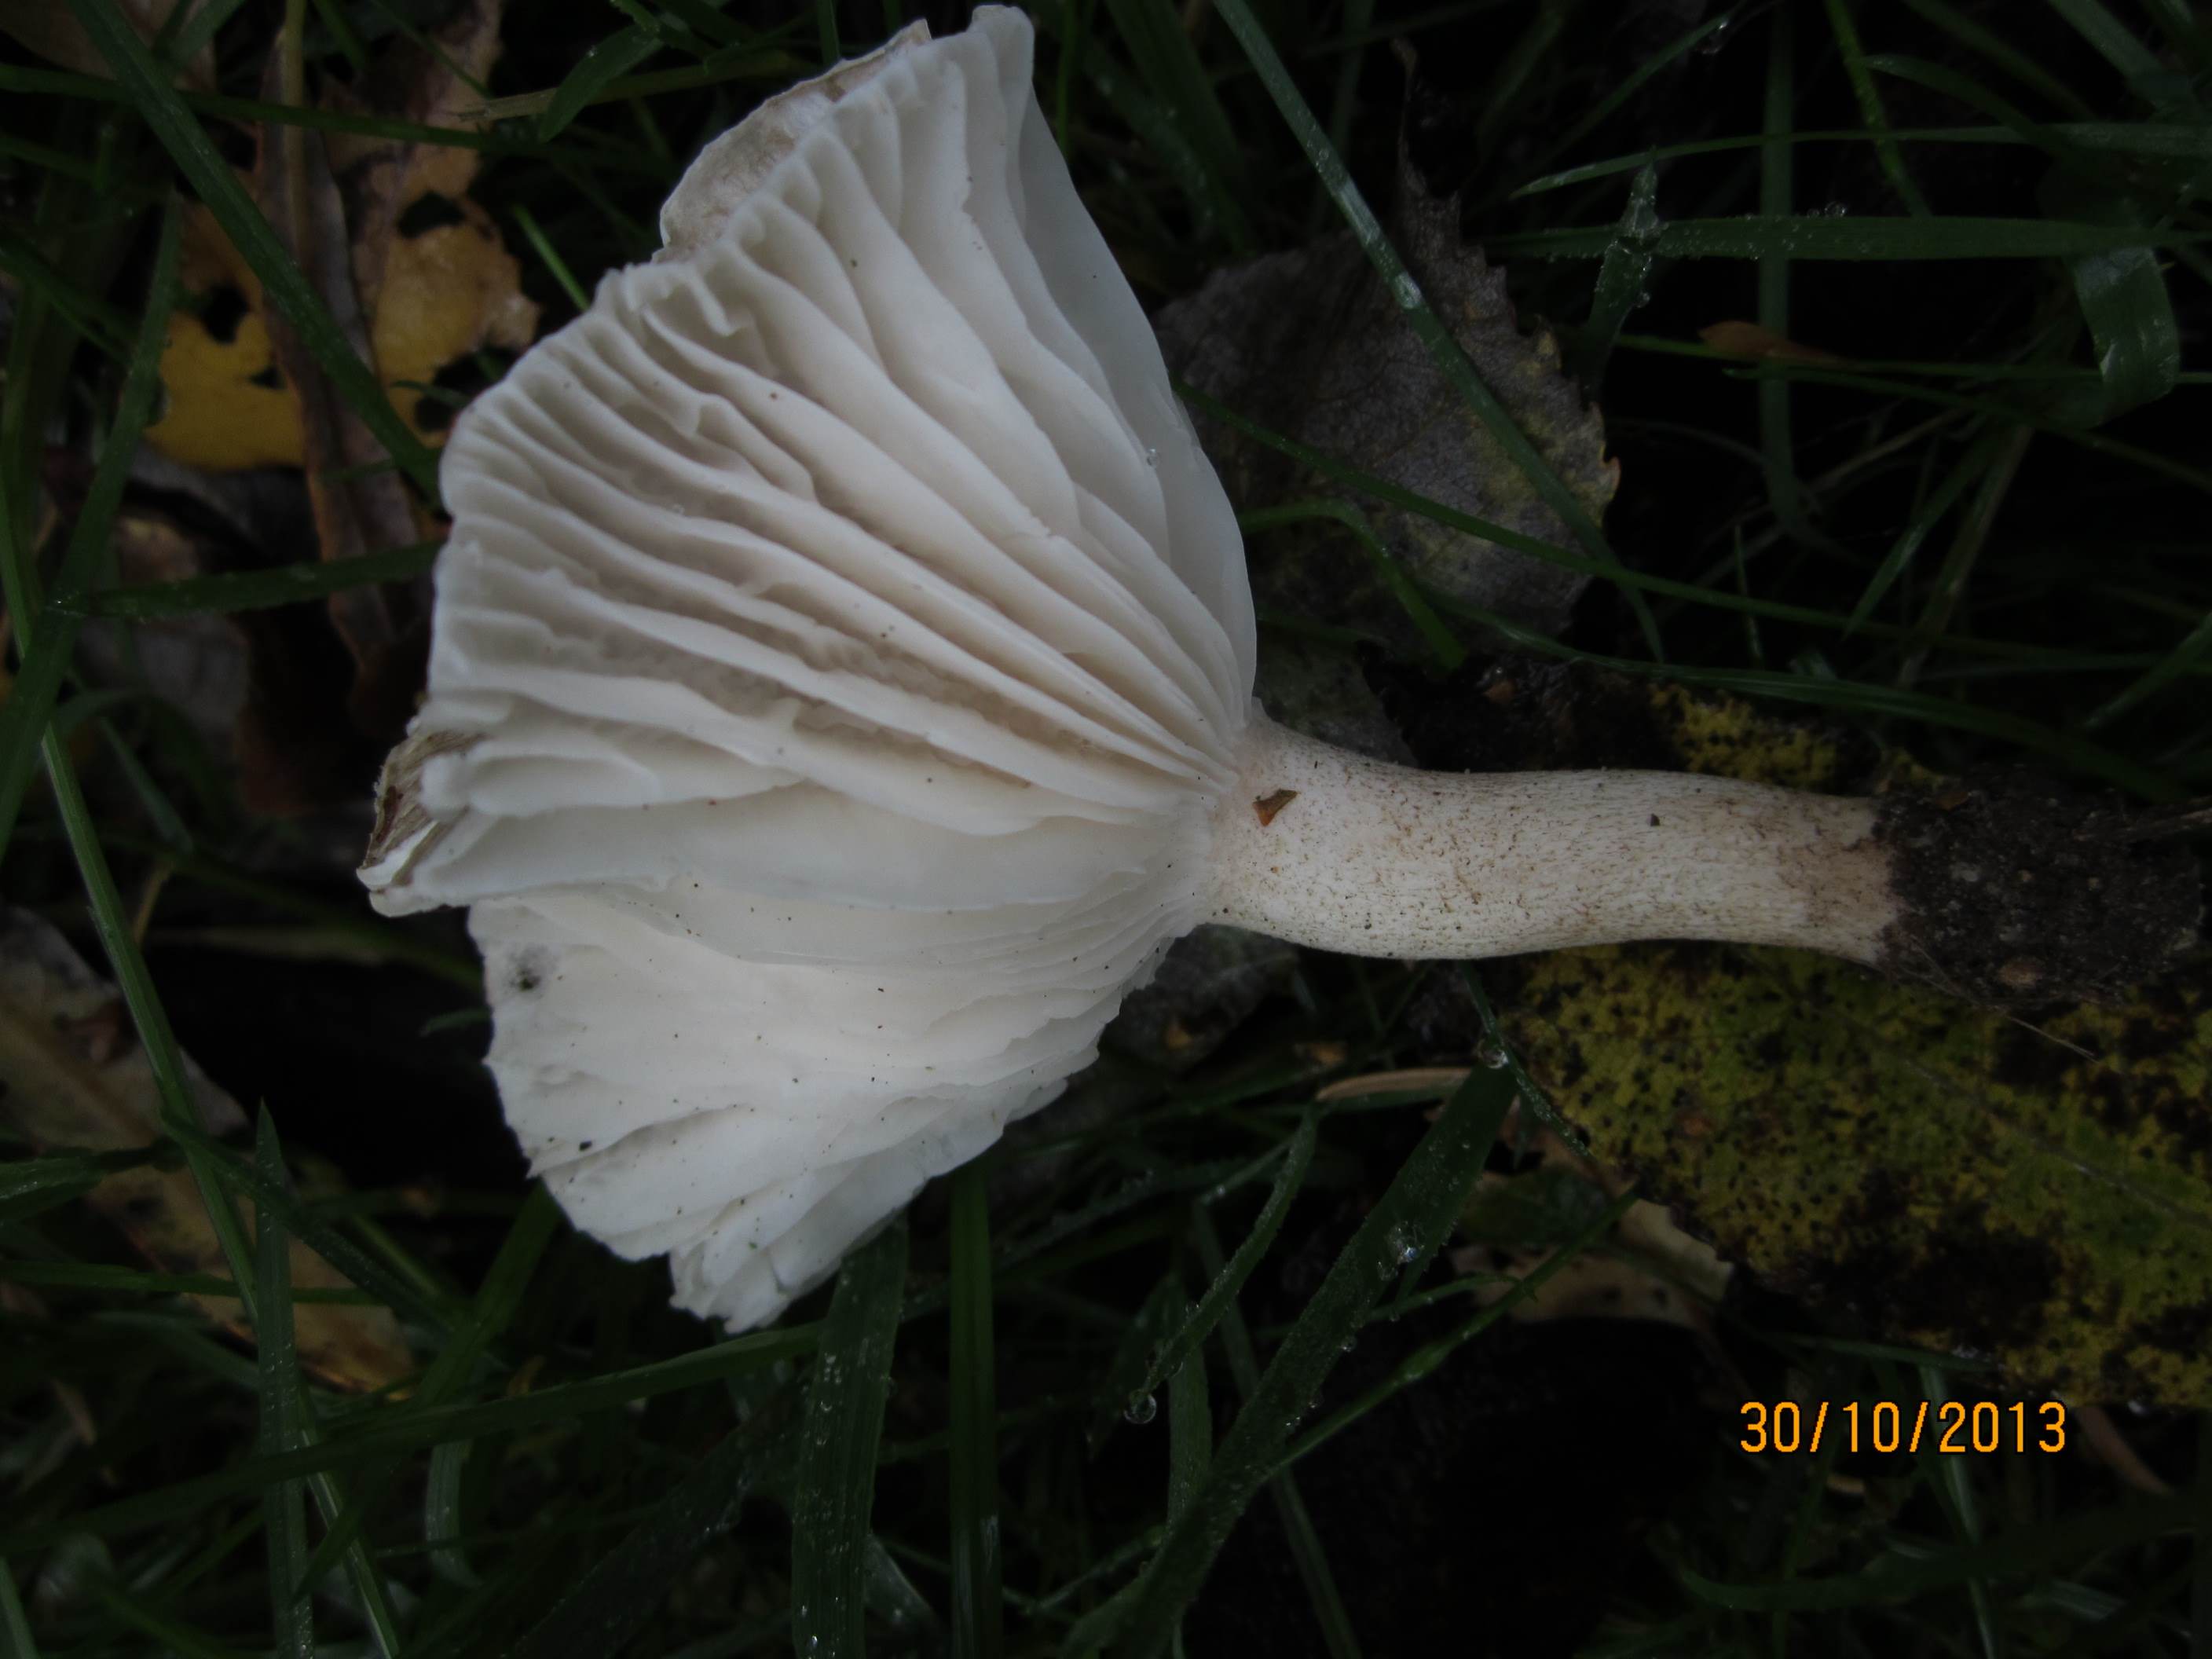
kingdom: Fungi
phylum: Basidiomycota
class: Agaricomycetes
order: Agaricales
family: Hygrophoraceae
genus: Hygrophorus
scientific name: Hygrophorus pustulatus
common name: mørkprikket sneglehat
